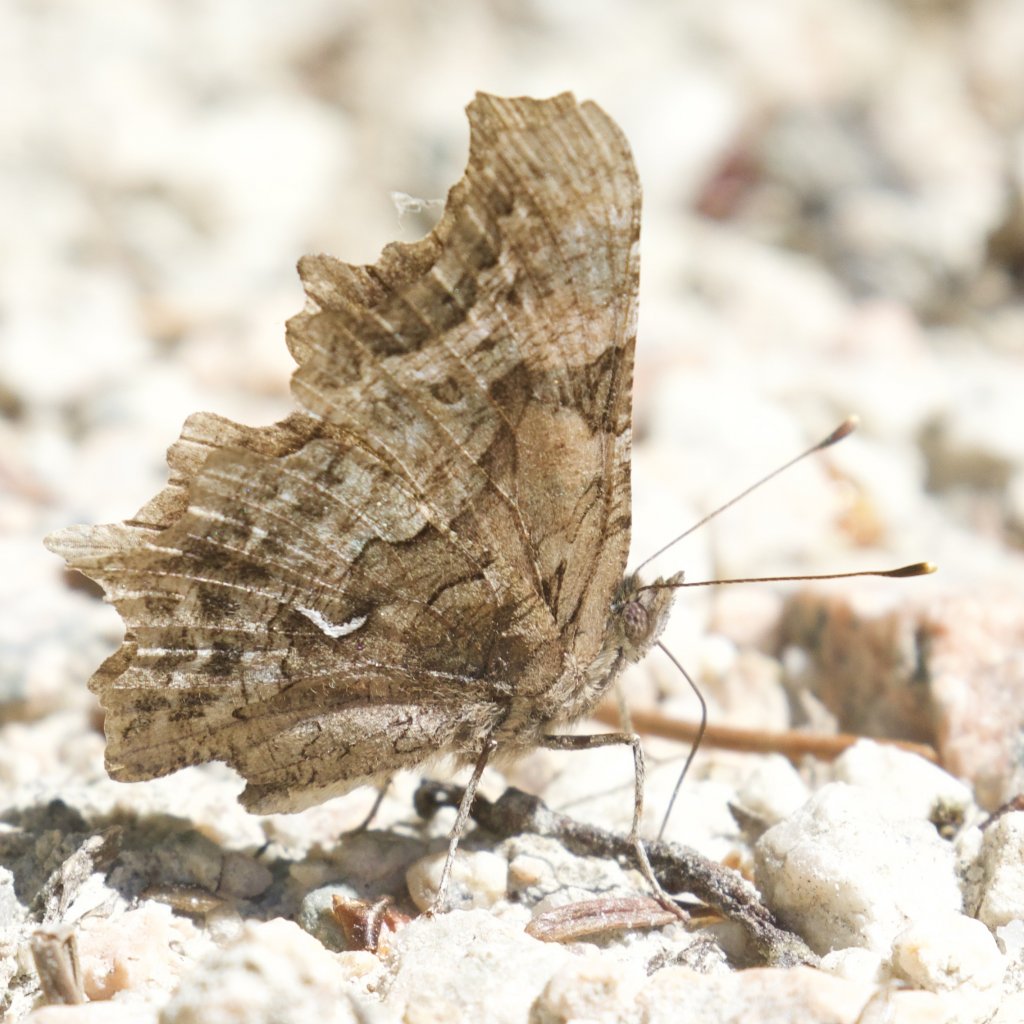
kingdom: Animalia
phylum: Arthropoda
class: Insecta
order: Lepidoptera
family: Nymphalidae
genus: Polygonia
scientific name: Polygonia faunus
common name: Green Comma
